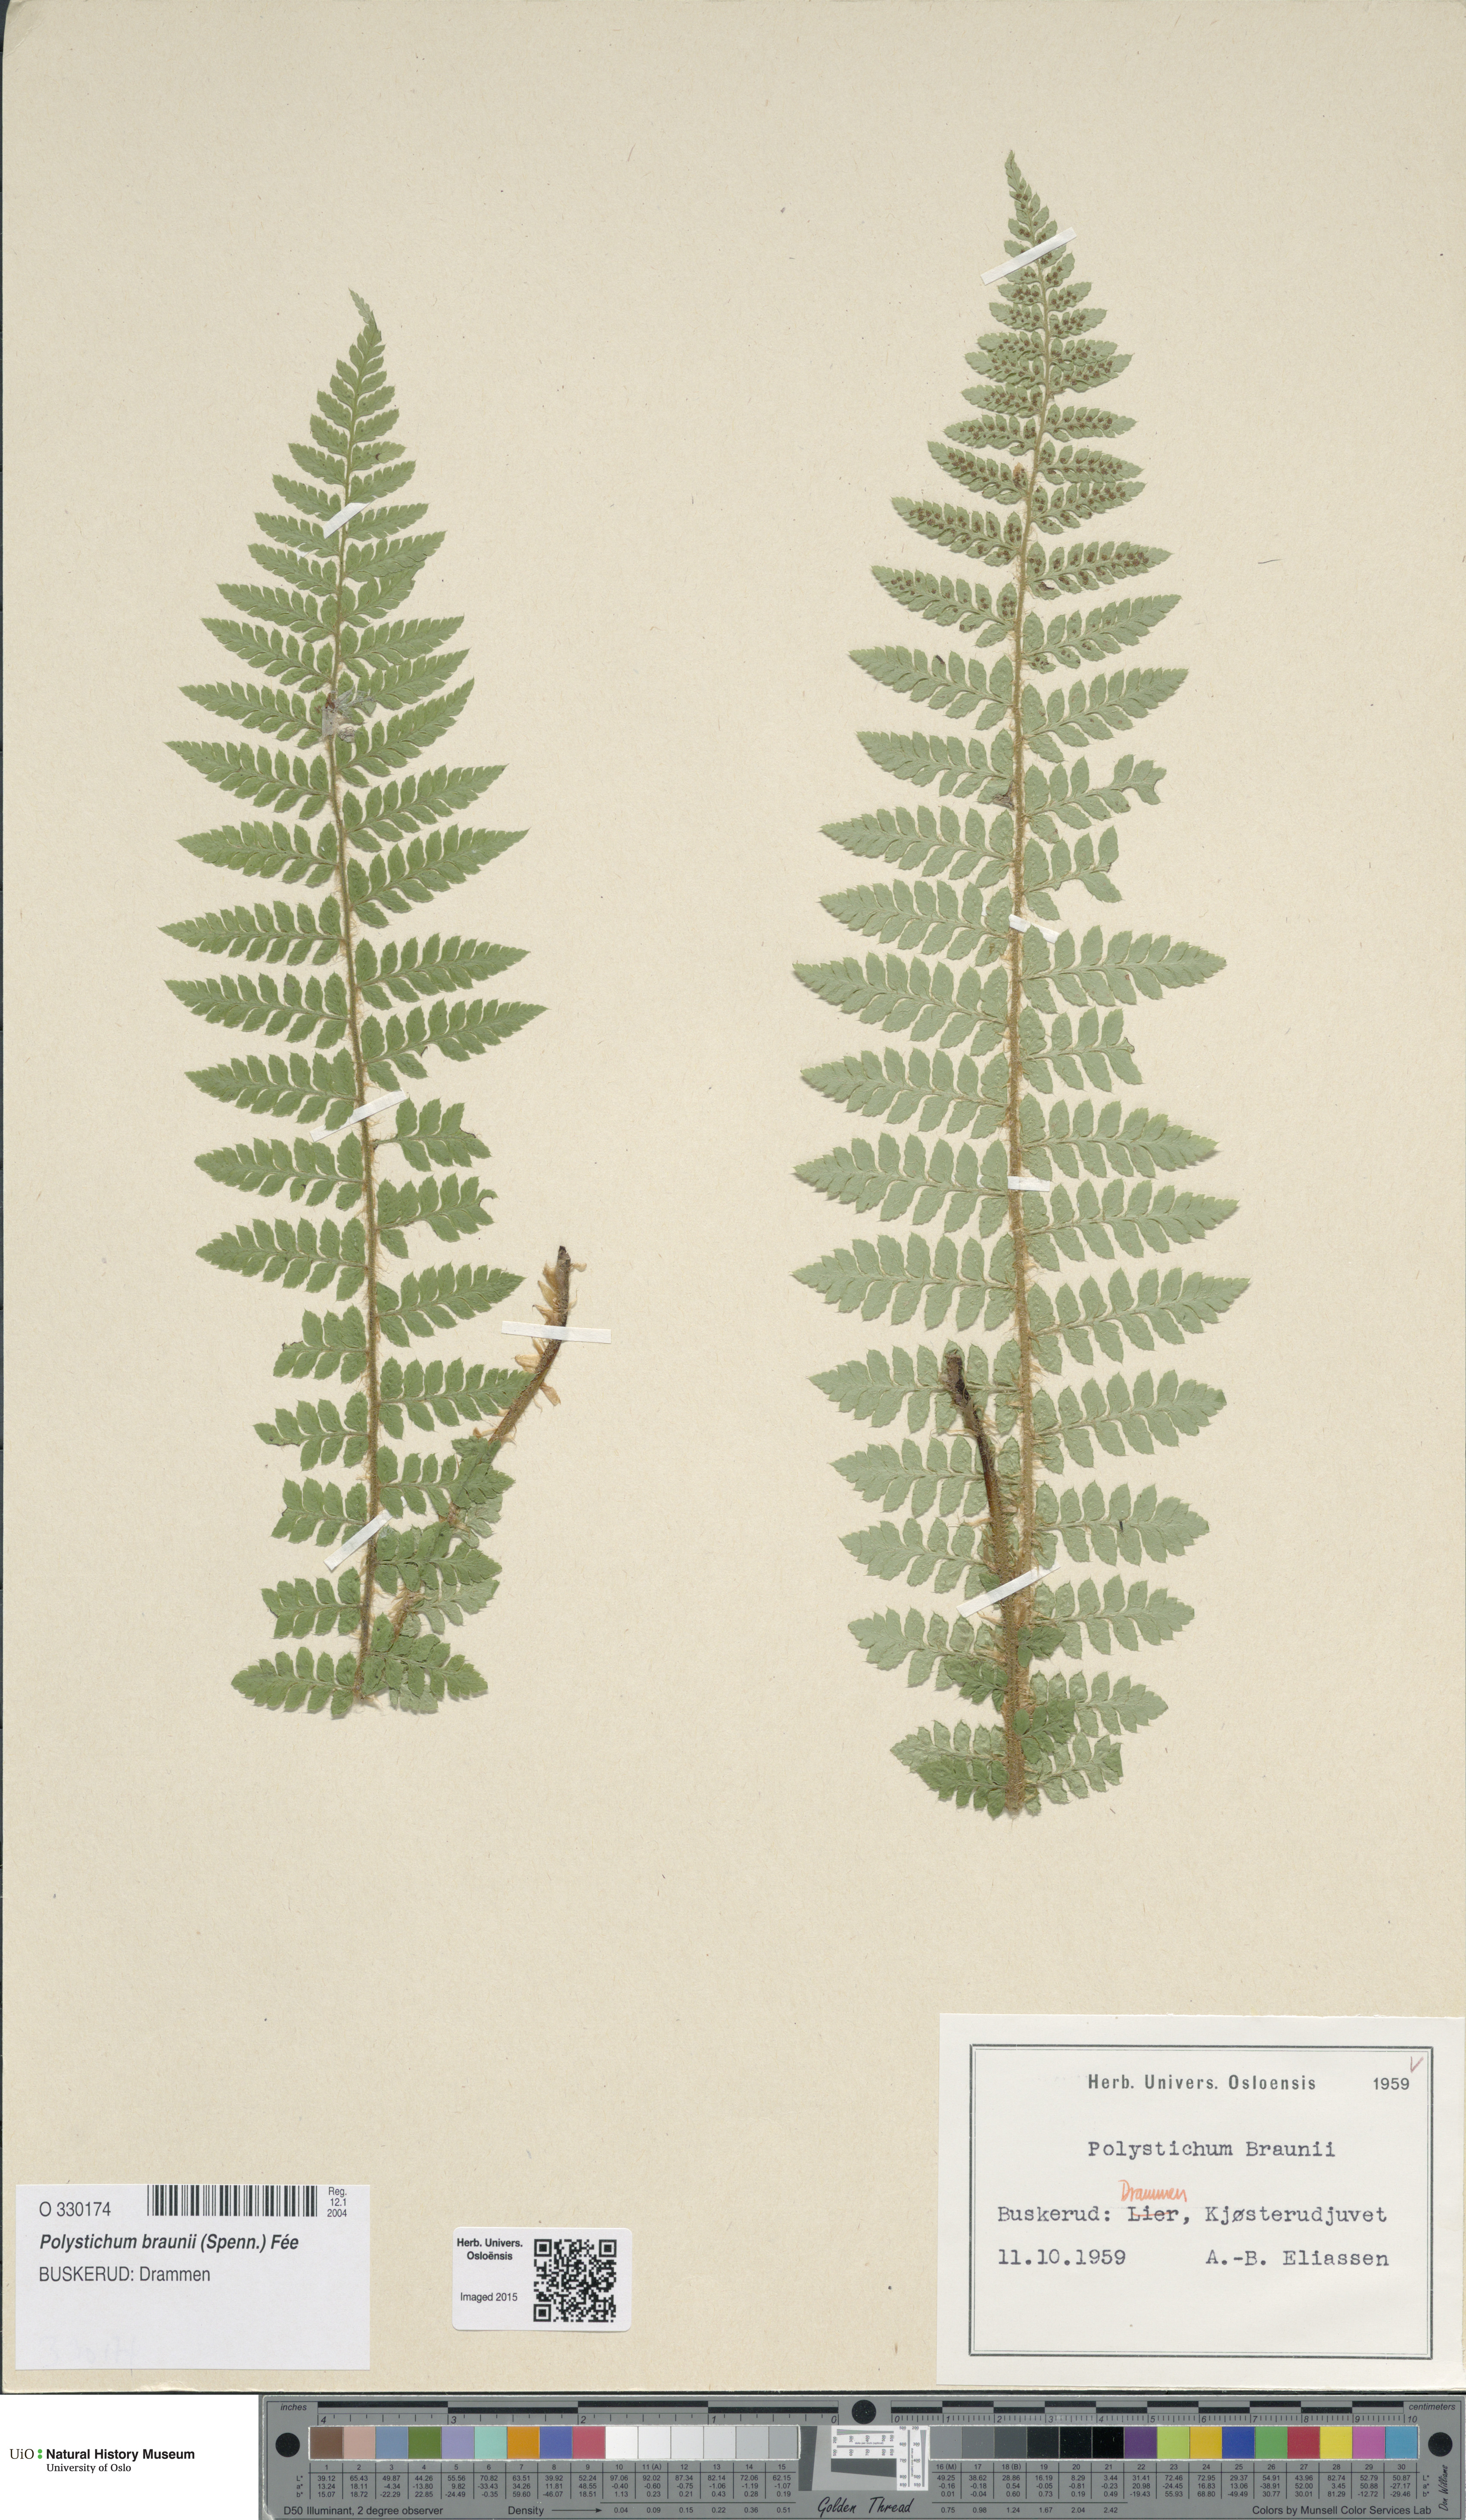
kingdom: Plantae
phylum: Tracheophyta
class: Polypodiopsida
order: Polypodiales
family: Dryopteridaceae
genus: Polystichum
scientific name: Polystichum braunii
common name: Braun's holly fern
